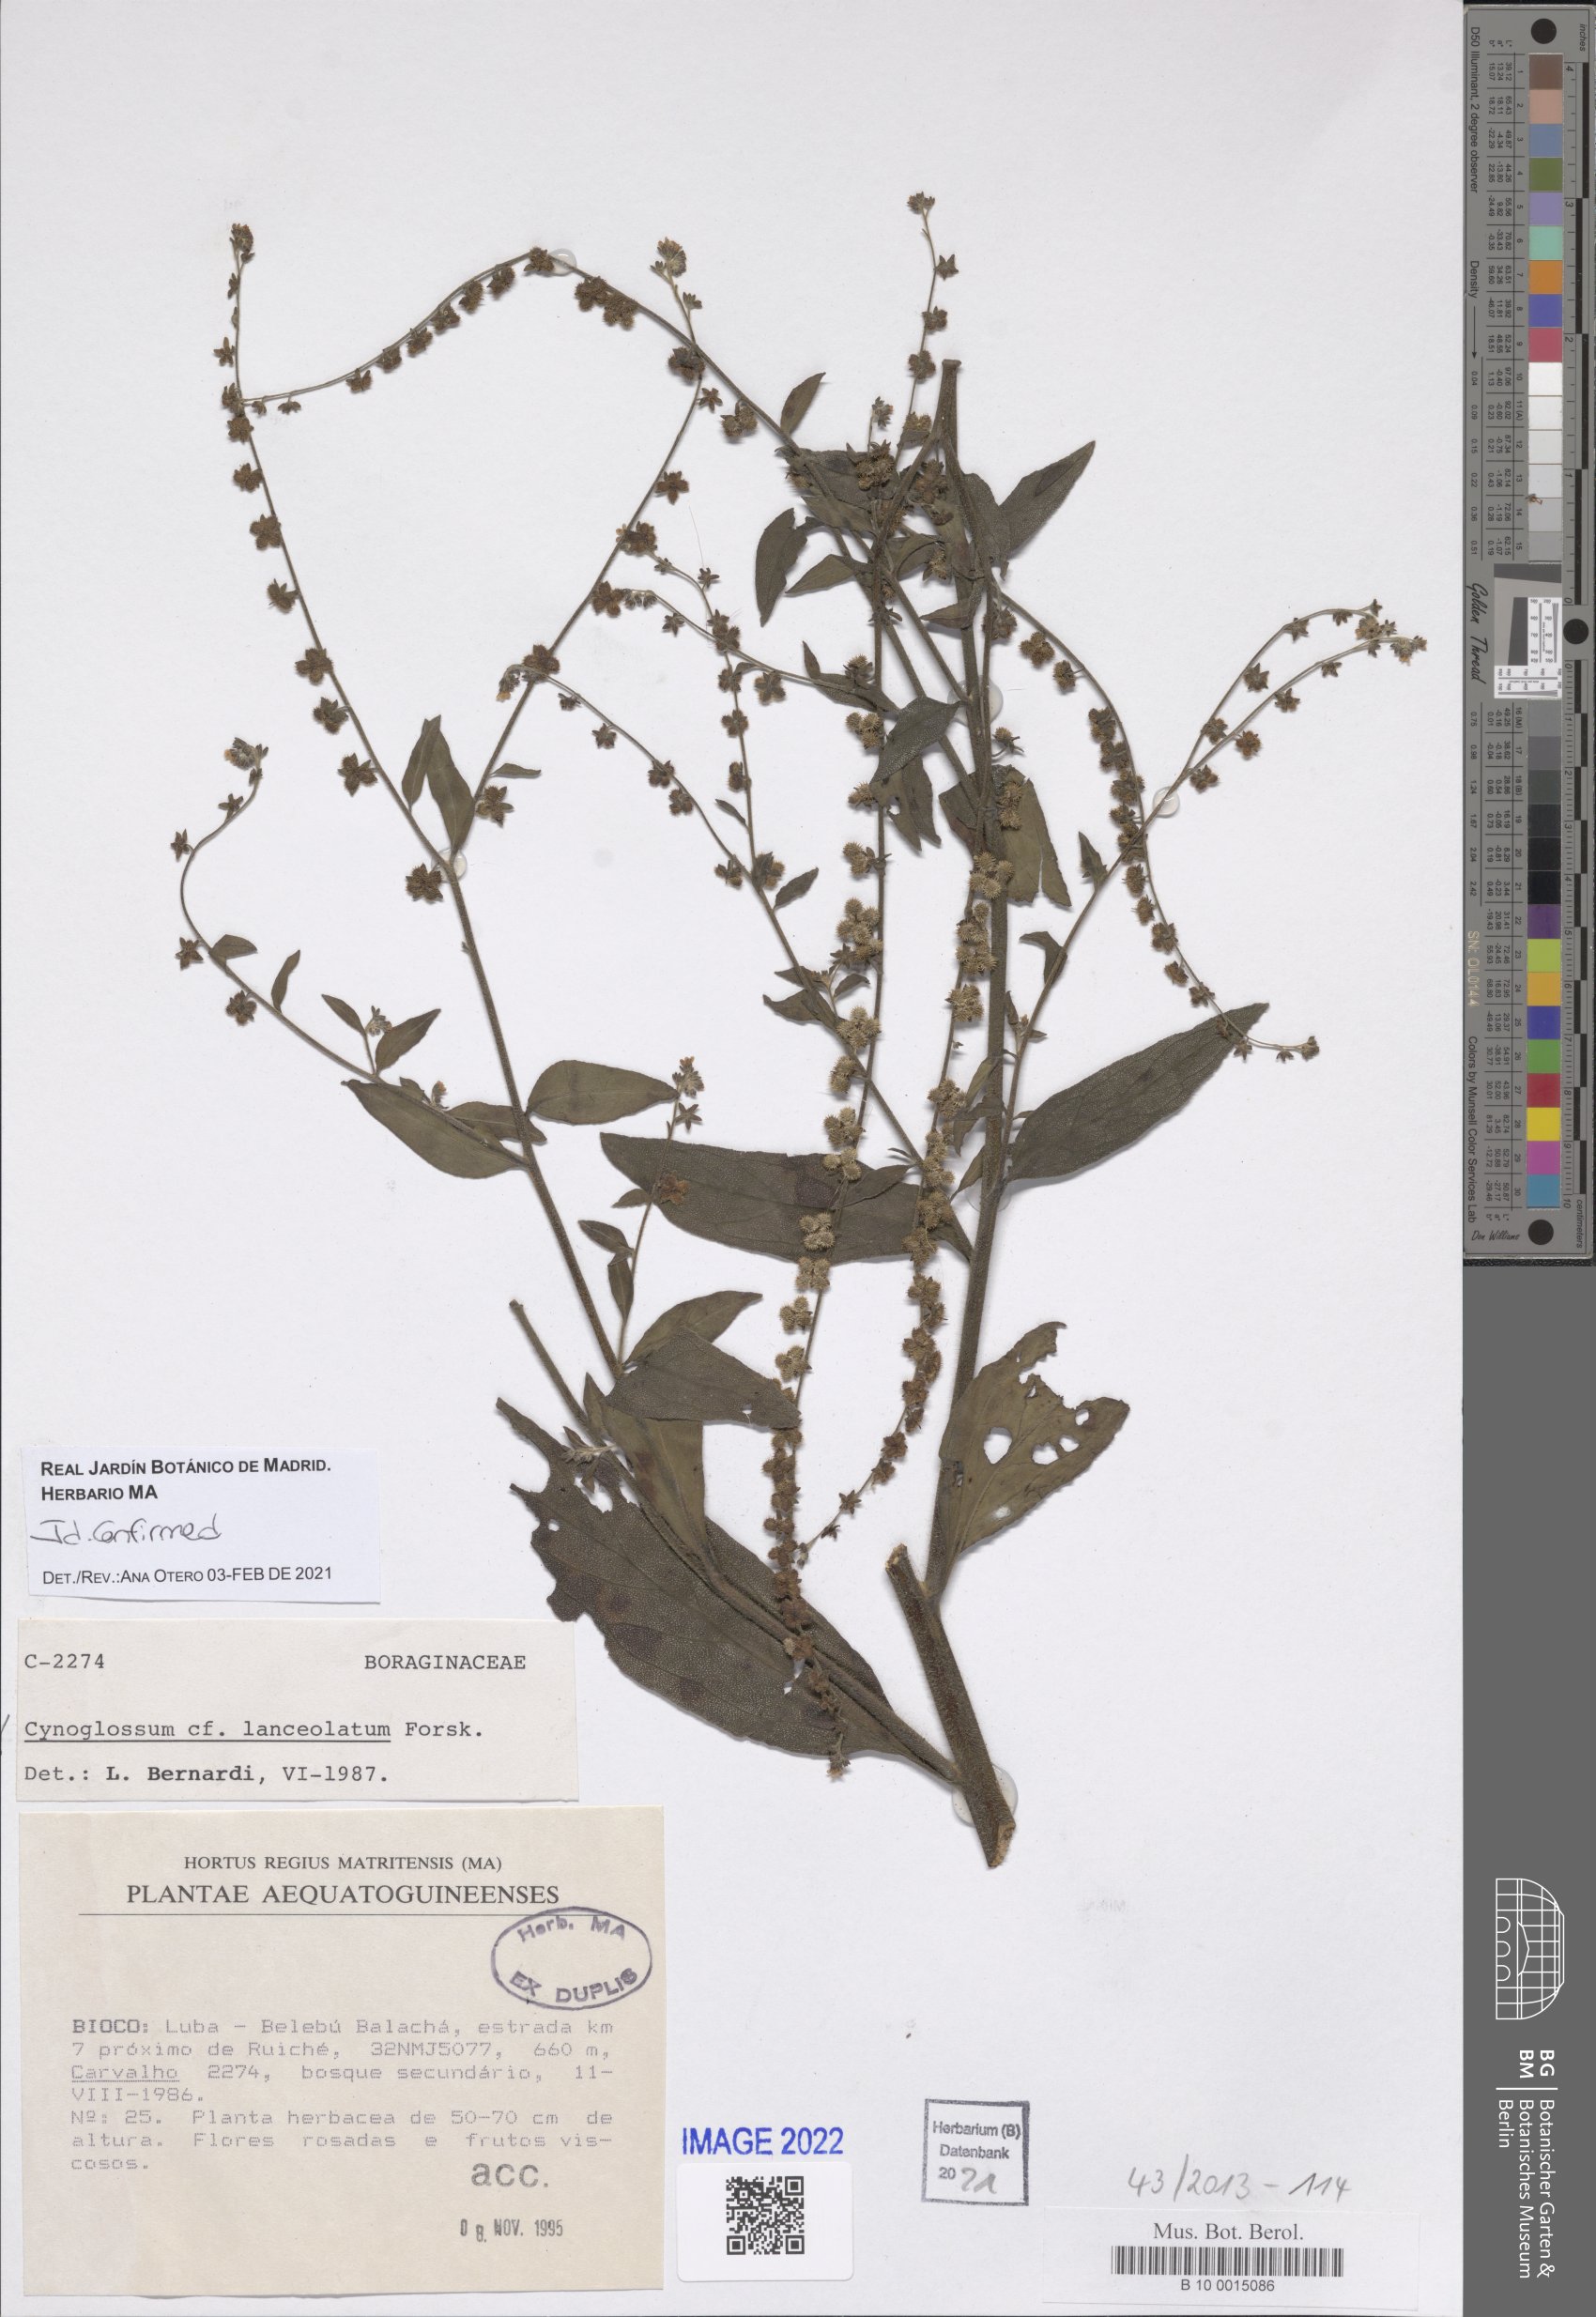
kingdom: Plantae
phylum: Tracheophyta
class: Magnoliopsida
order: Boraginales
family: Boraginaceae
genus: Paracynoglossum
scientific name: Paracynoglossum lanceolatum
